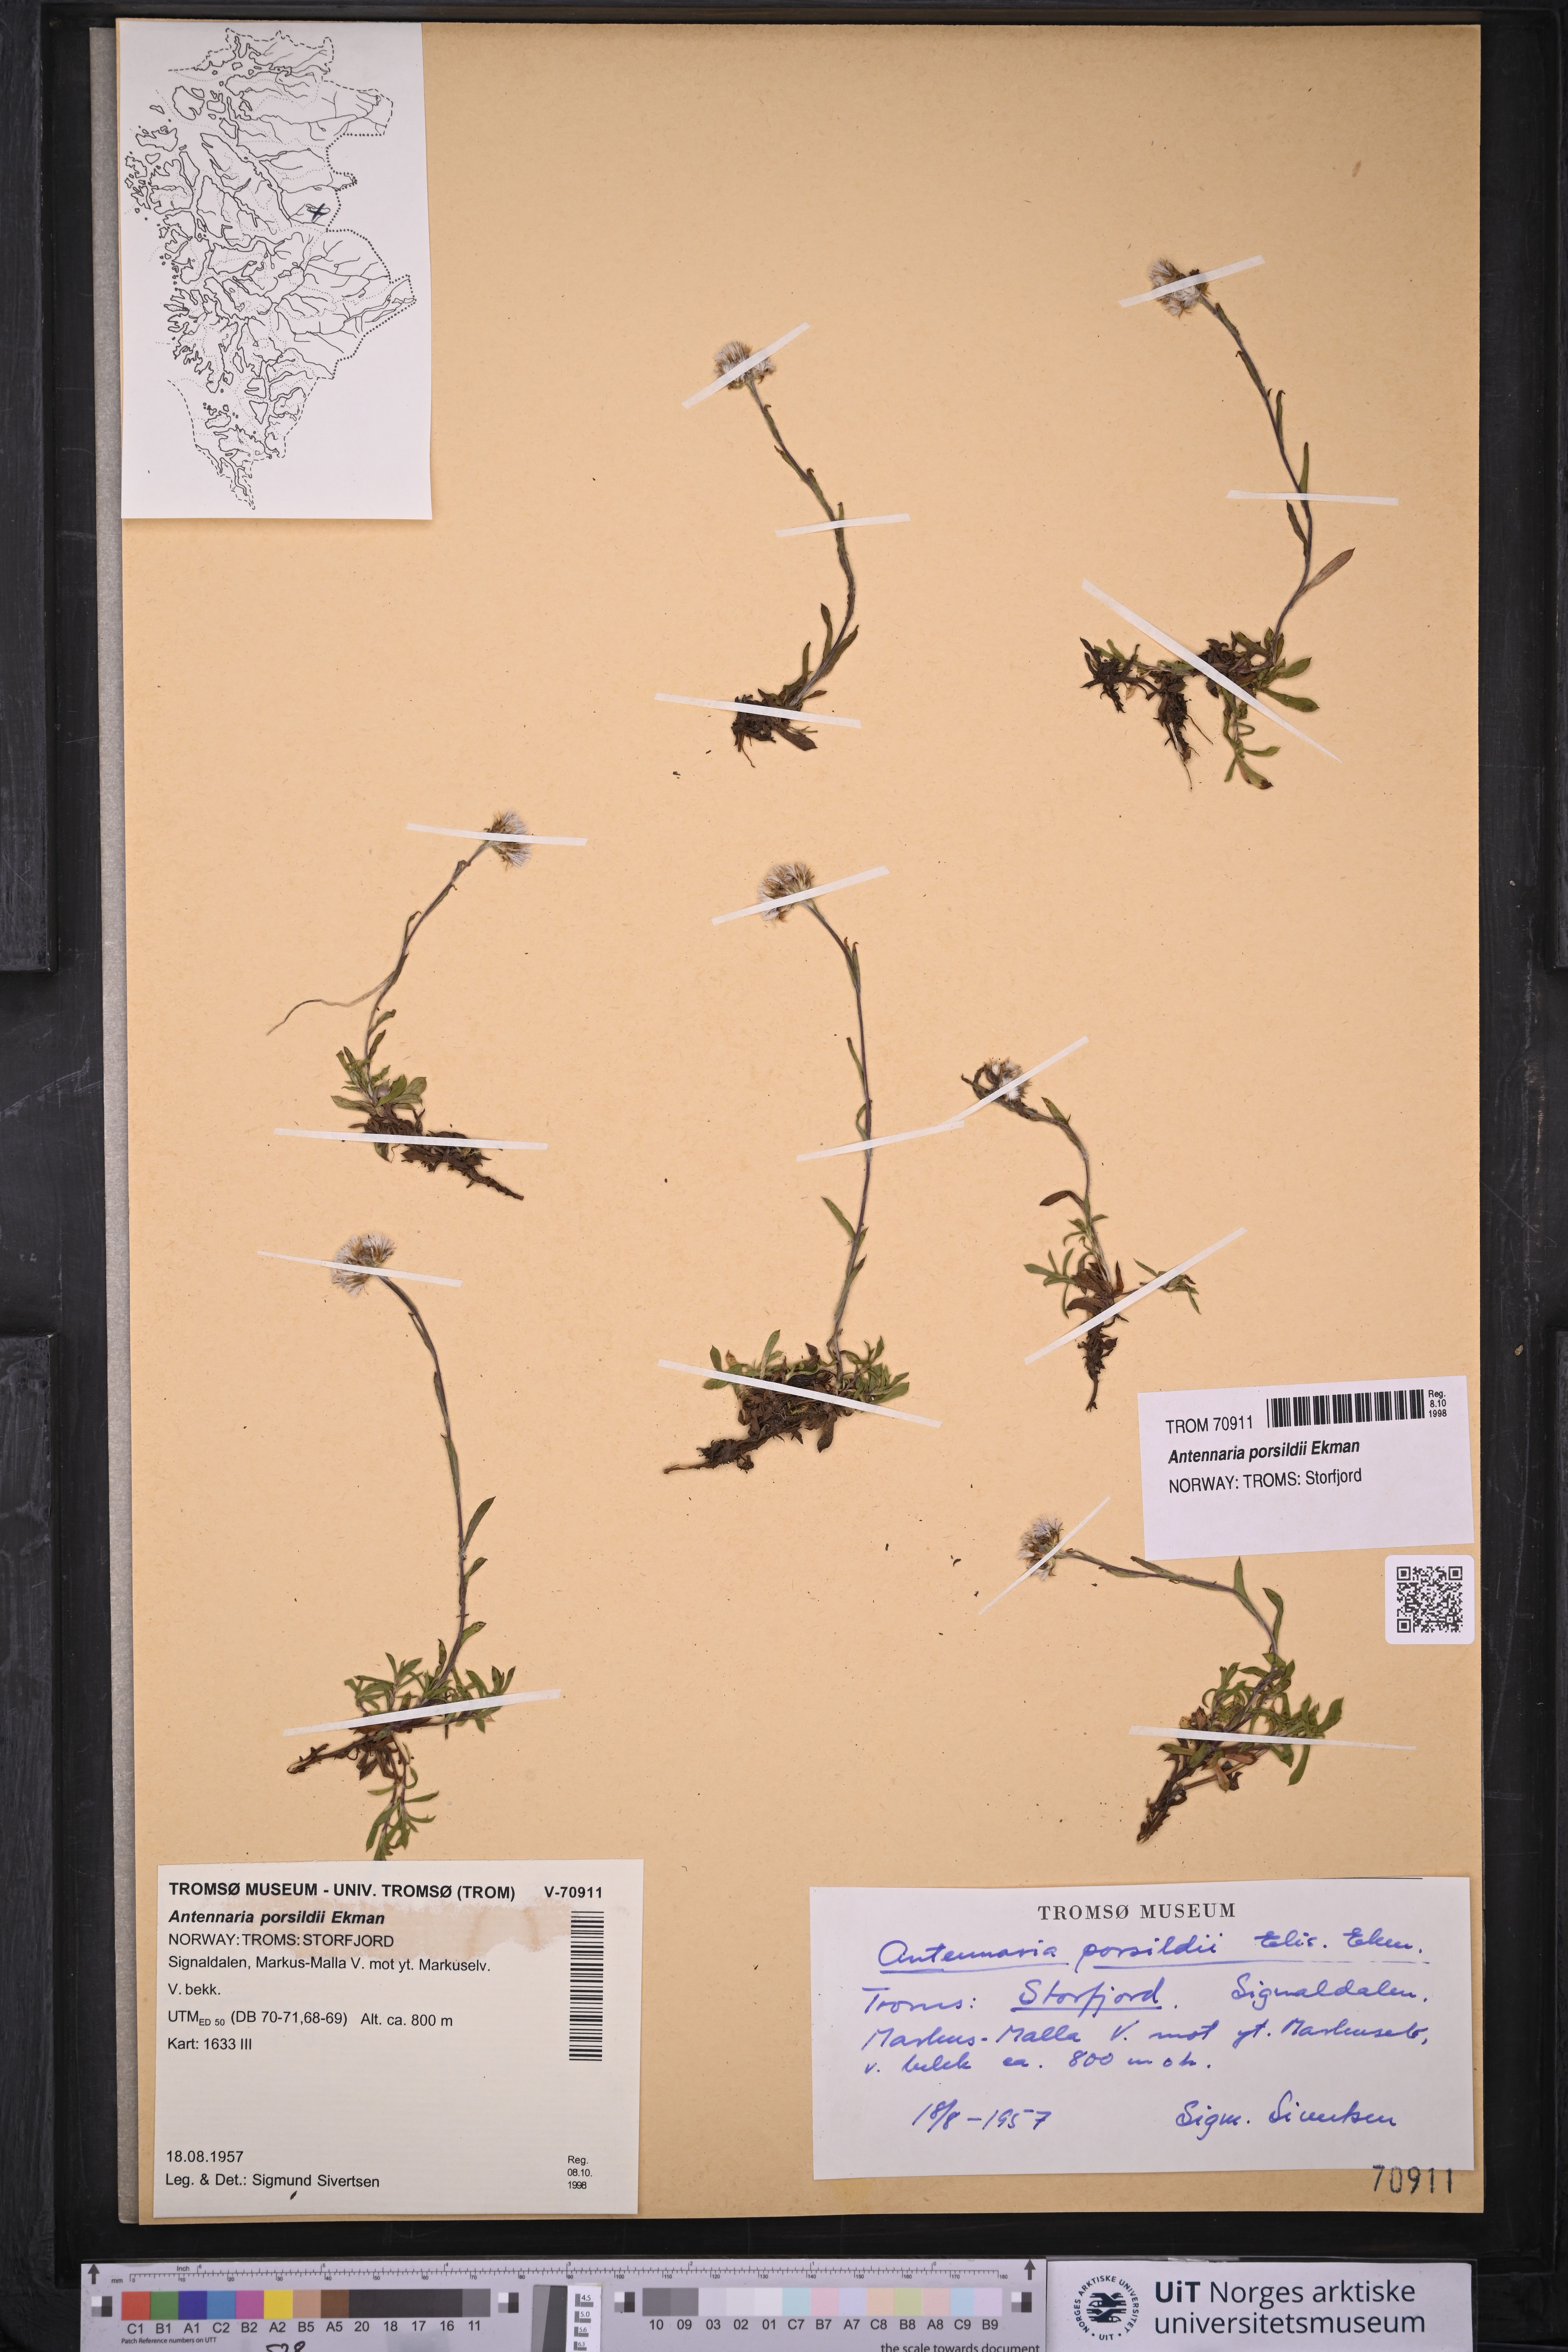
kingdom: Plantae
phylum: Tracheophyta
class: Magnoliopsida
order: Asterales
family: Asteraceae
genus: Antennaria
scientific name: Antennaria porsildii
